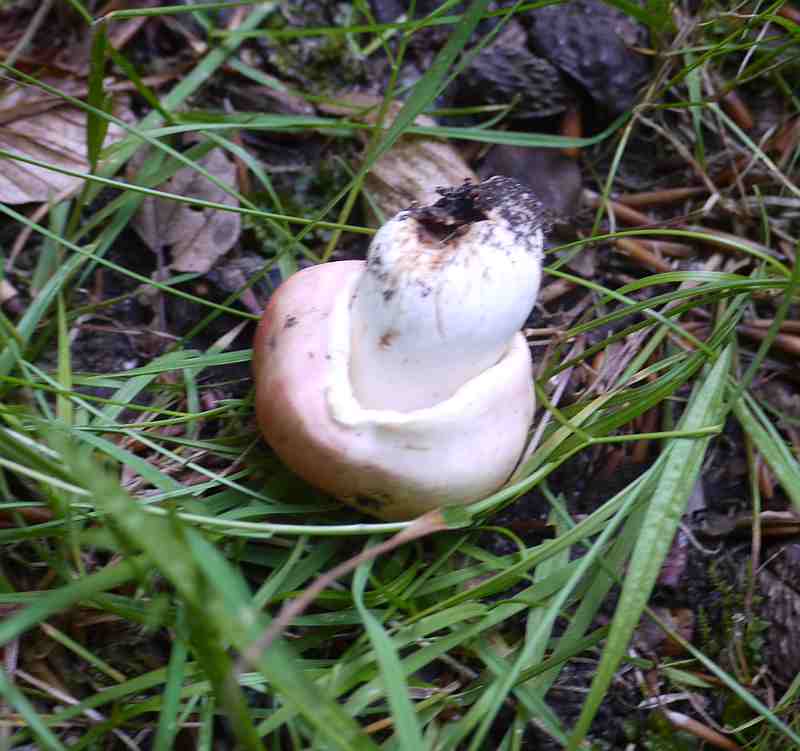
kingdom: Fungi
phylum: Basidiomycota
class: Agaricomycetes
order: Russulales
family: Russulaceae
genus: Russula
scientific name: Russula rosea
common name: fastkødet skørhat
